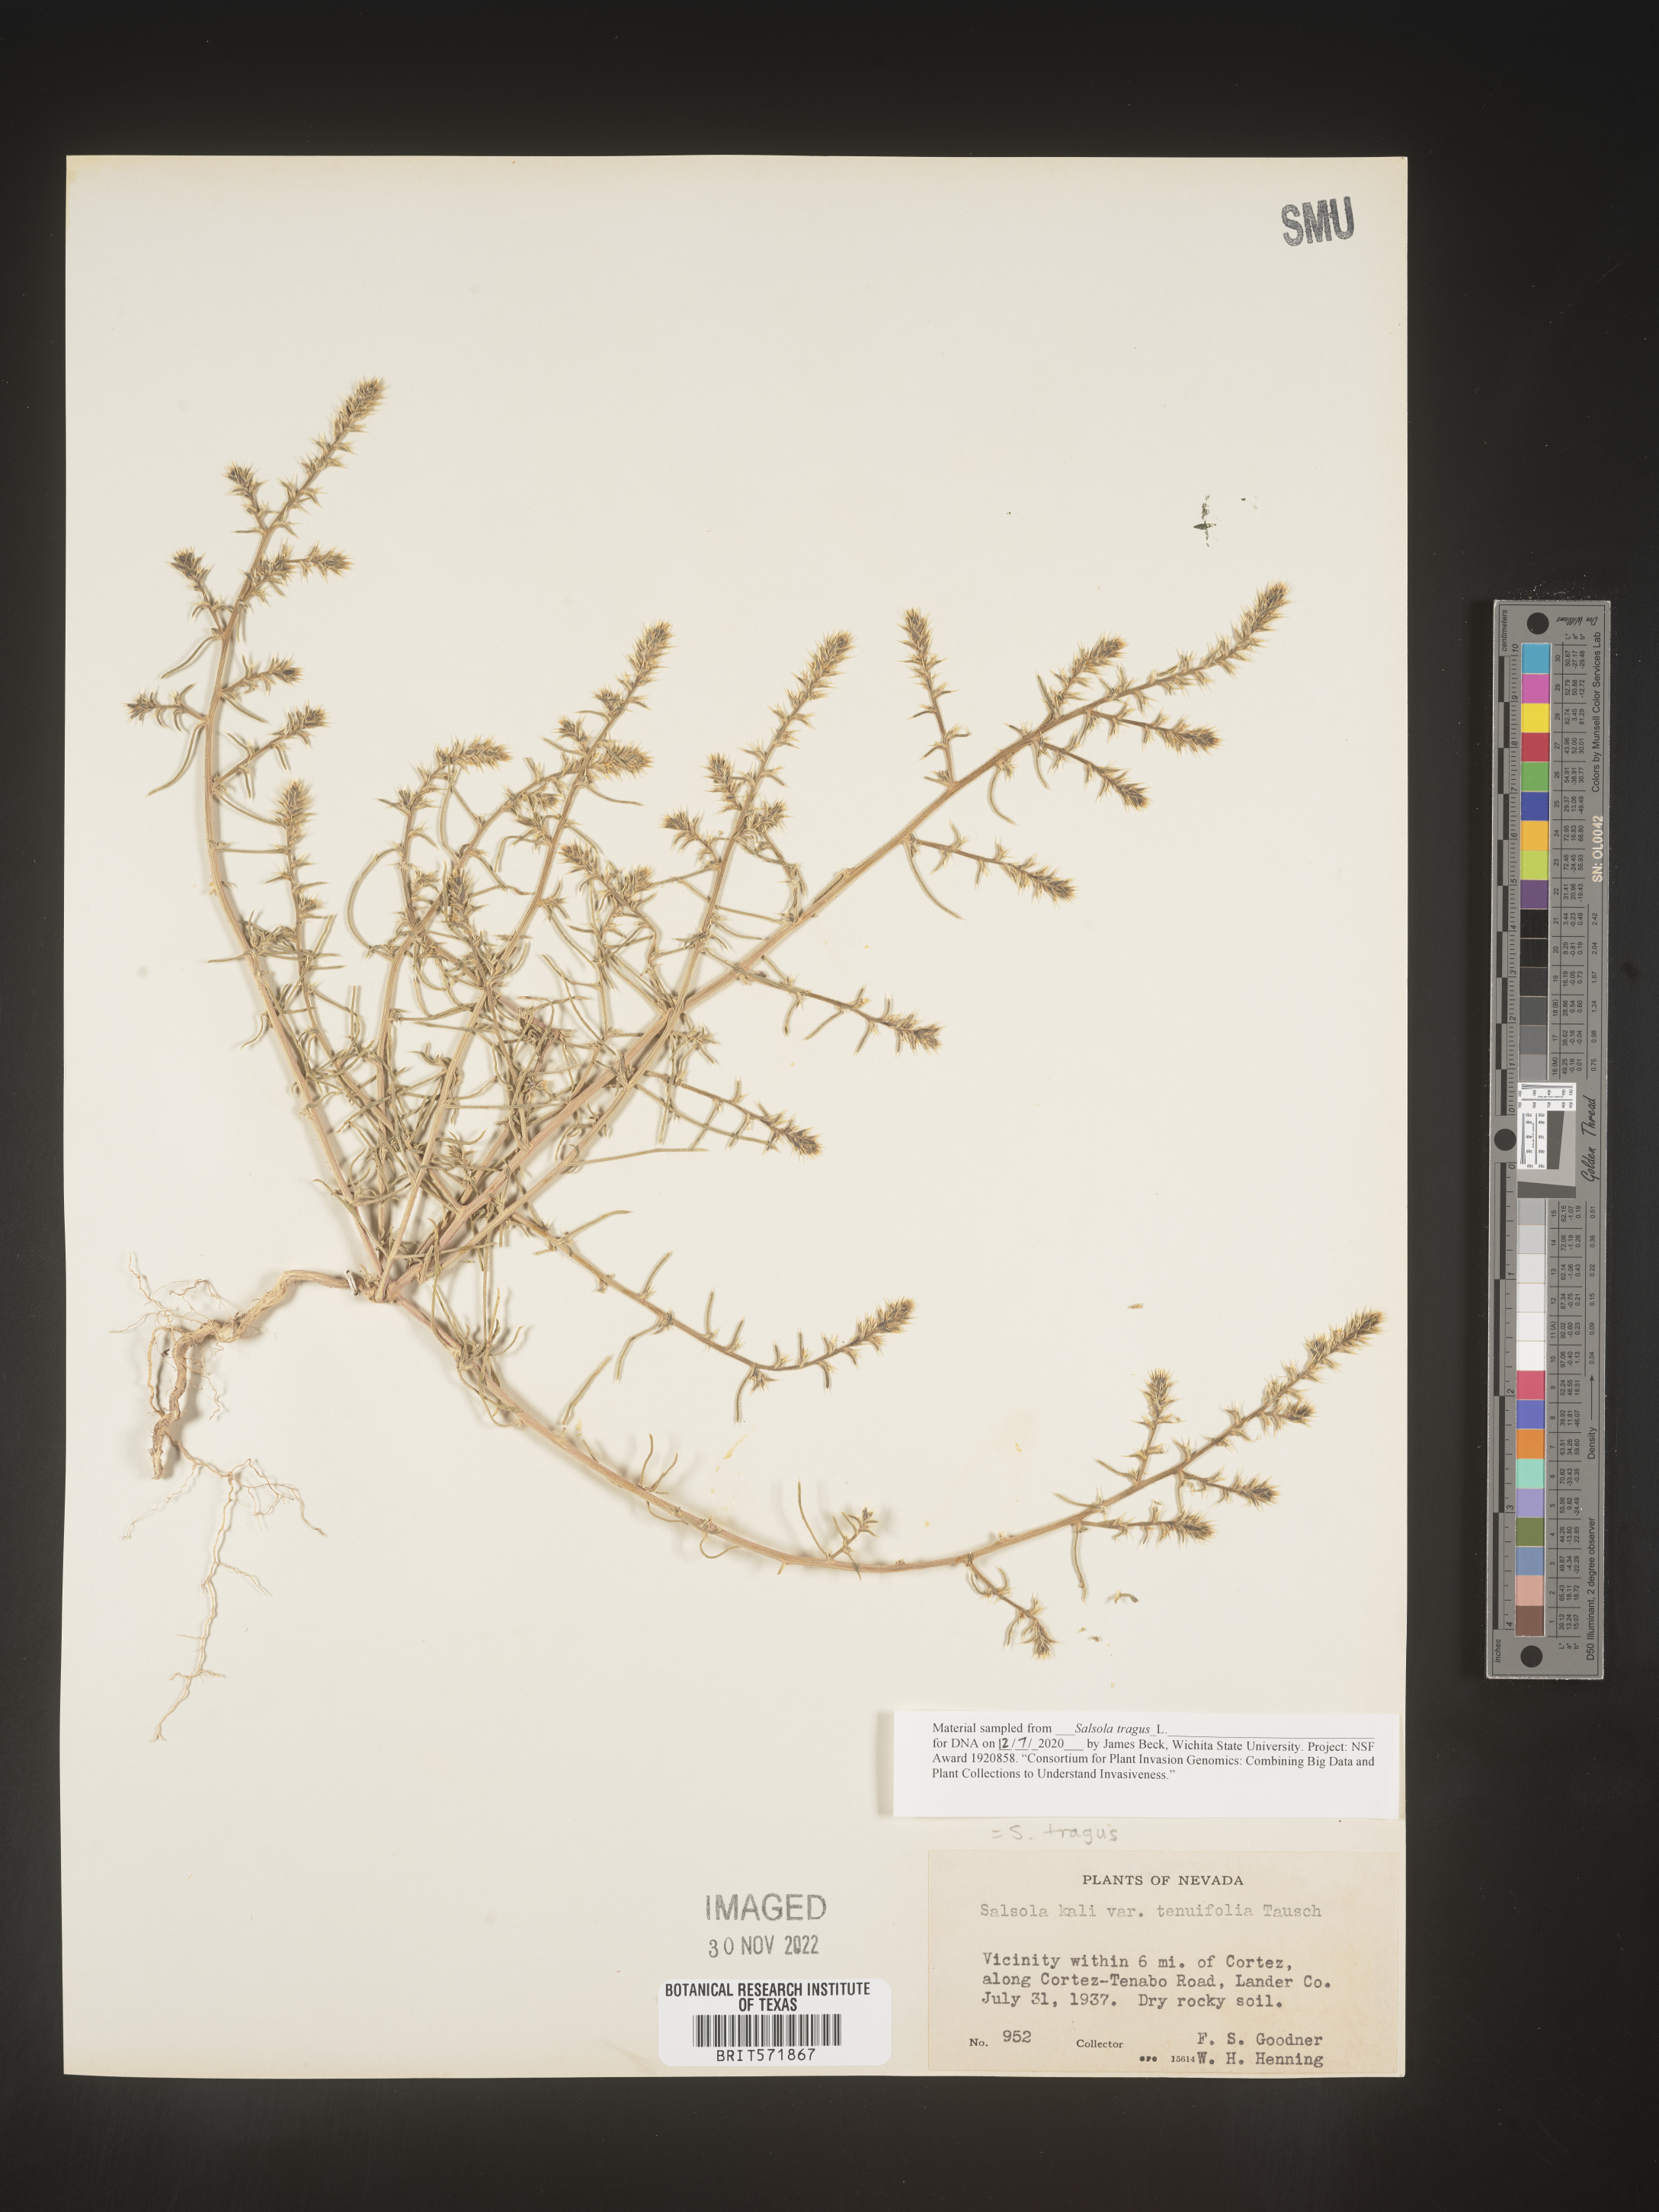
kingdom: Plantae
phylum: Tracheophyta
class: Magnoliopsida
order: Caryophyllales
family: Amaranthaceae
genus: Salsola
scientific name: Salsola tragus
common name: Prickly russian thistle
